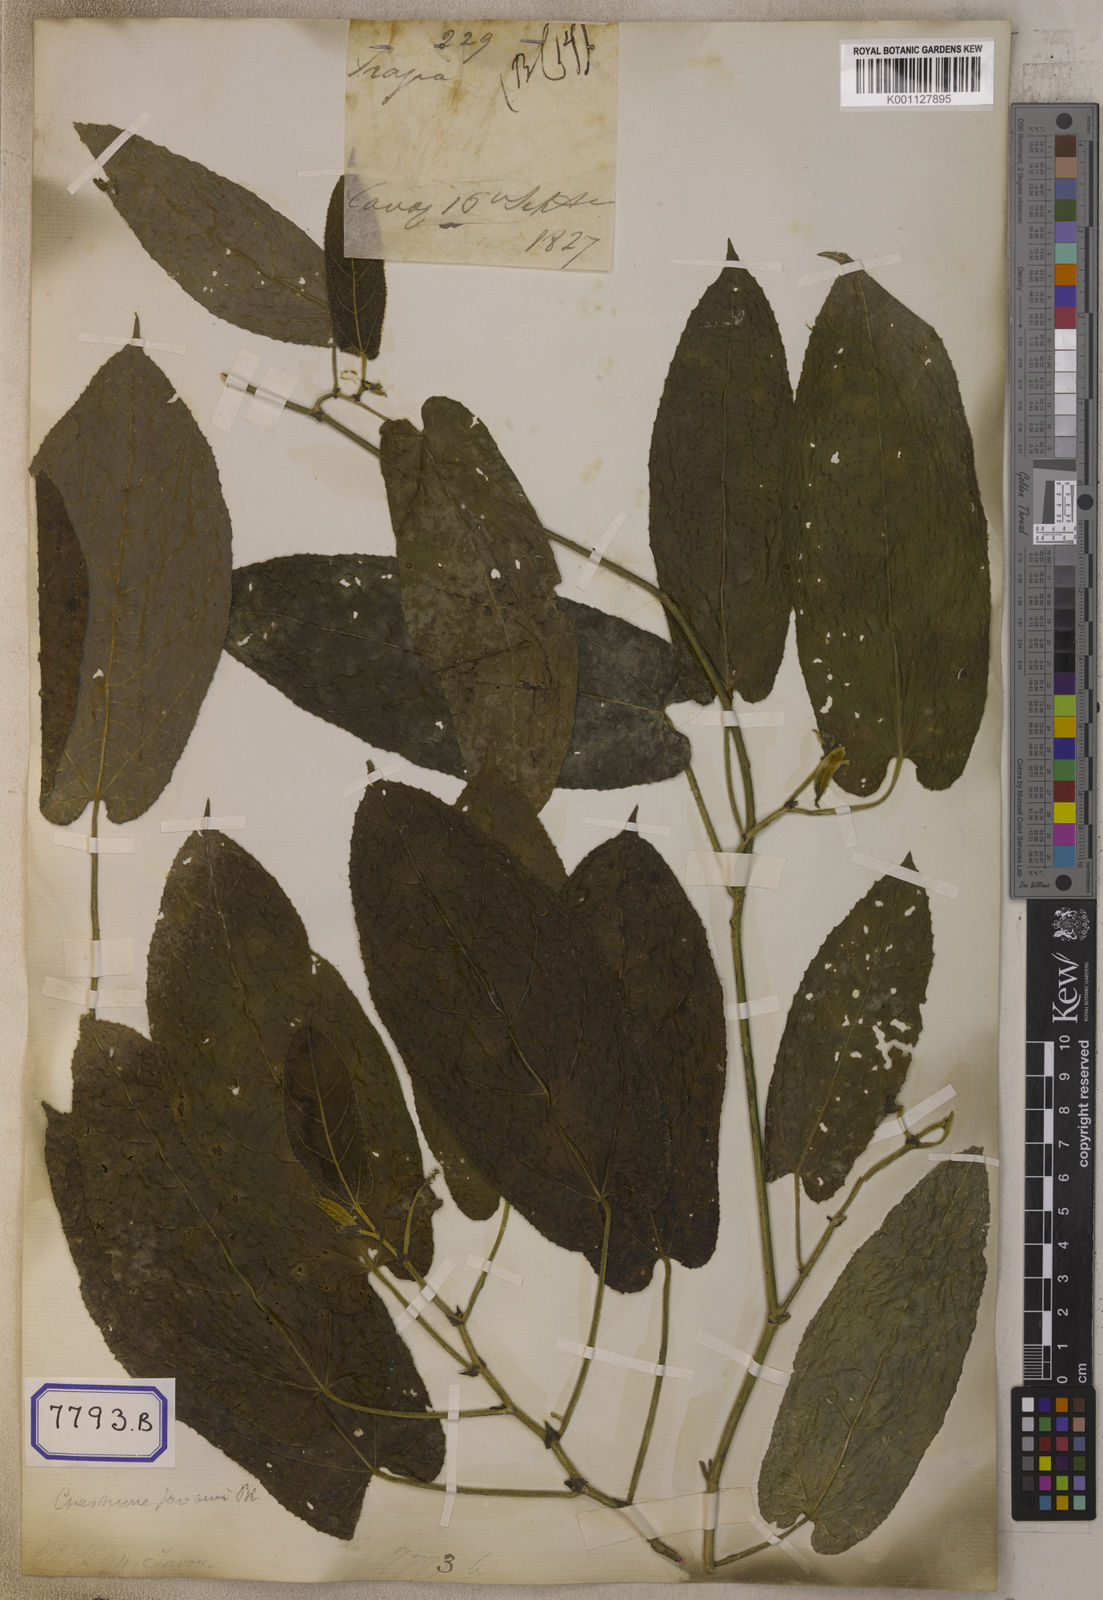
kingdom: Plantae
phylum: Tracheophyta
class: Magnoliopsida
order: Malpighiales
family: Euphorbiaceae
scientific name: Euphorbiaceae
